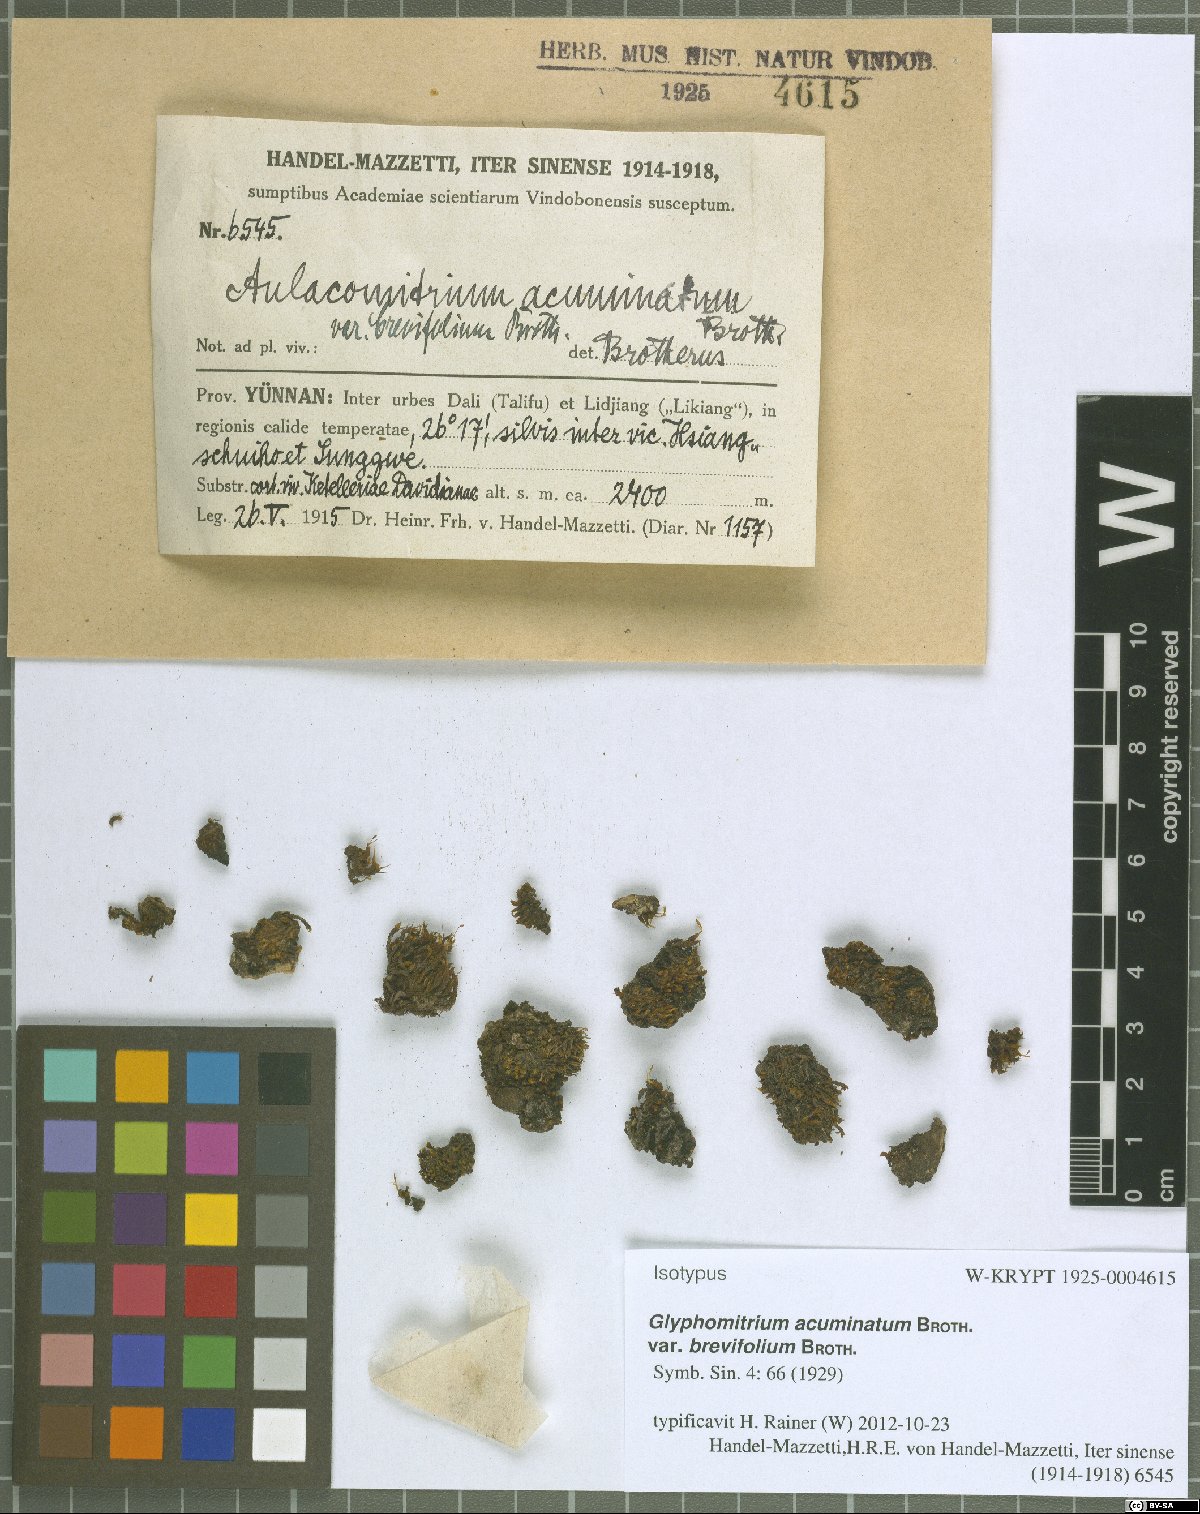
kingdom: Plantae
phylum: Bryophyta
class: Bryopsida
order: Dicranales
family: Rhabdoweisiaceae
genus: Glyphomitrium
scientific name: Glyphomitrium acuminatum
